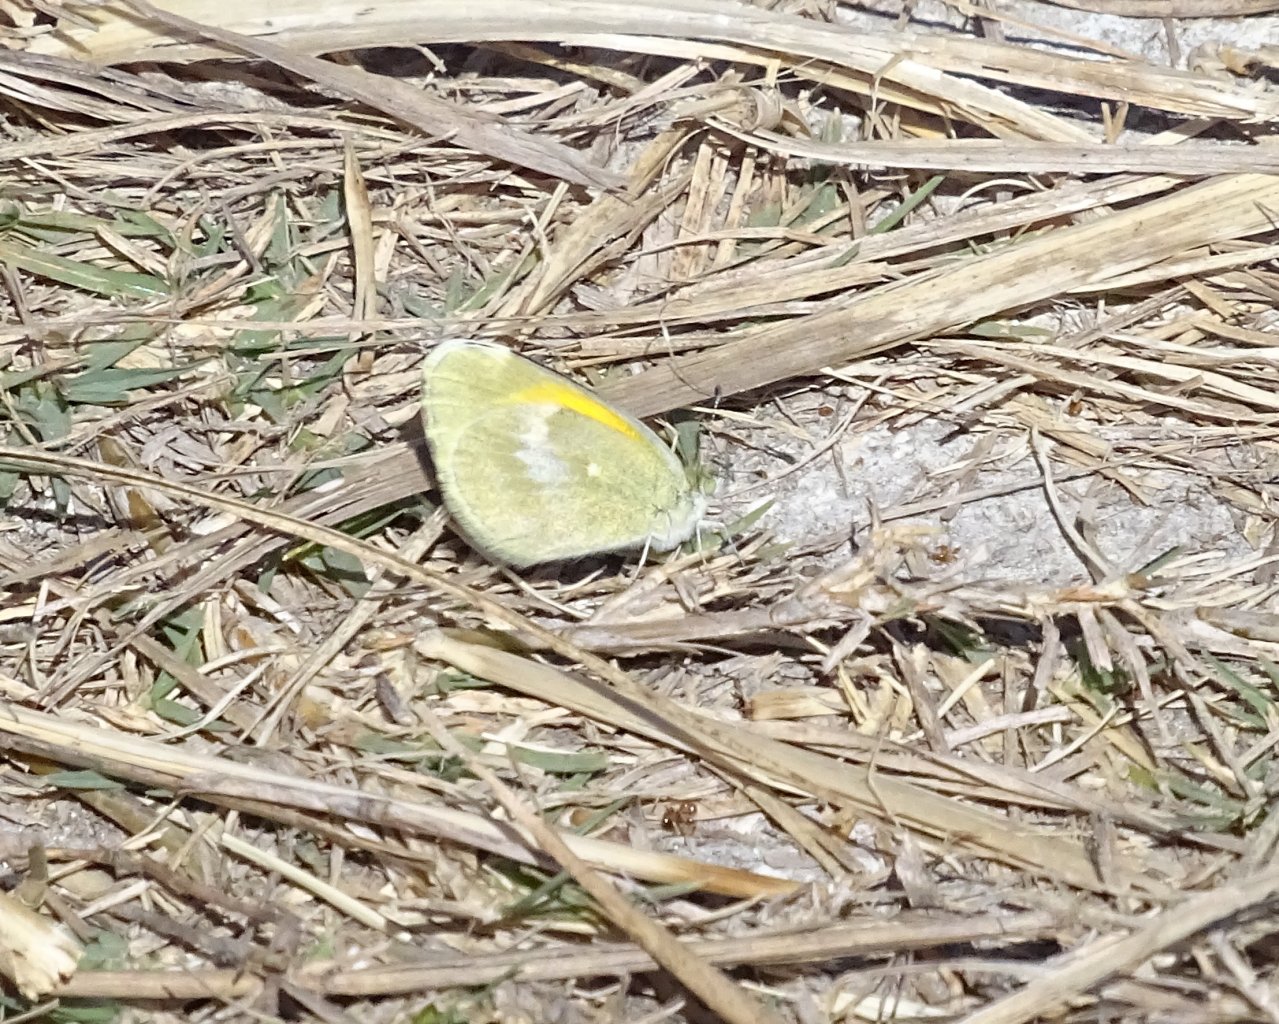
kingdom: Animalia
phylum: Arthropoda
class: Insecta
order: Lepidoptera
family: Pieridae
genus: Nathalis
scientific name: Nathalis iole
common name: Dainty Sulphur
